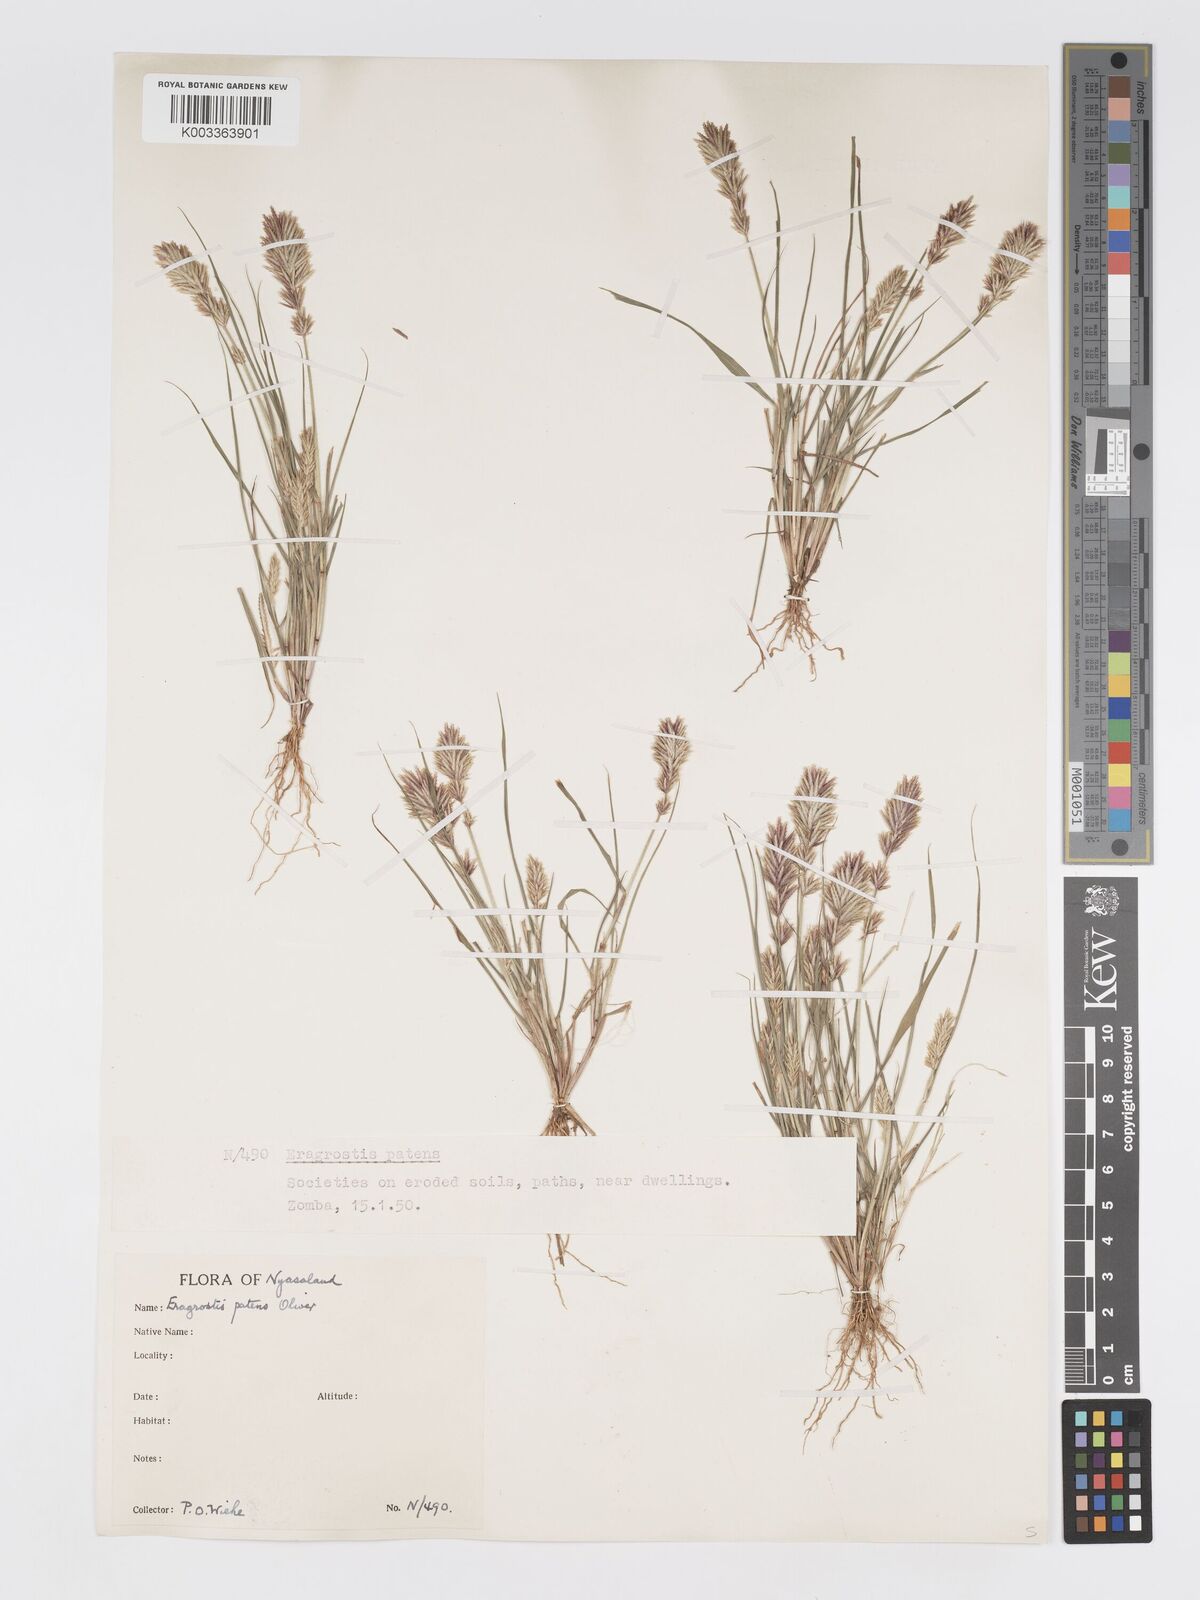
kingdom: Plantae
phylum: Tracheophyta
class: Liliopsida
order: Poales
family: Poaceae
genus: Eragrostis
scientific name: Eragrostis patens
